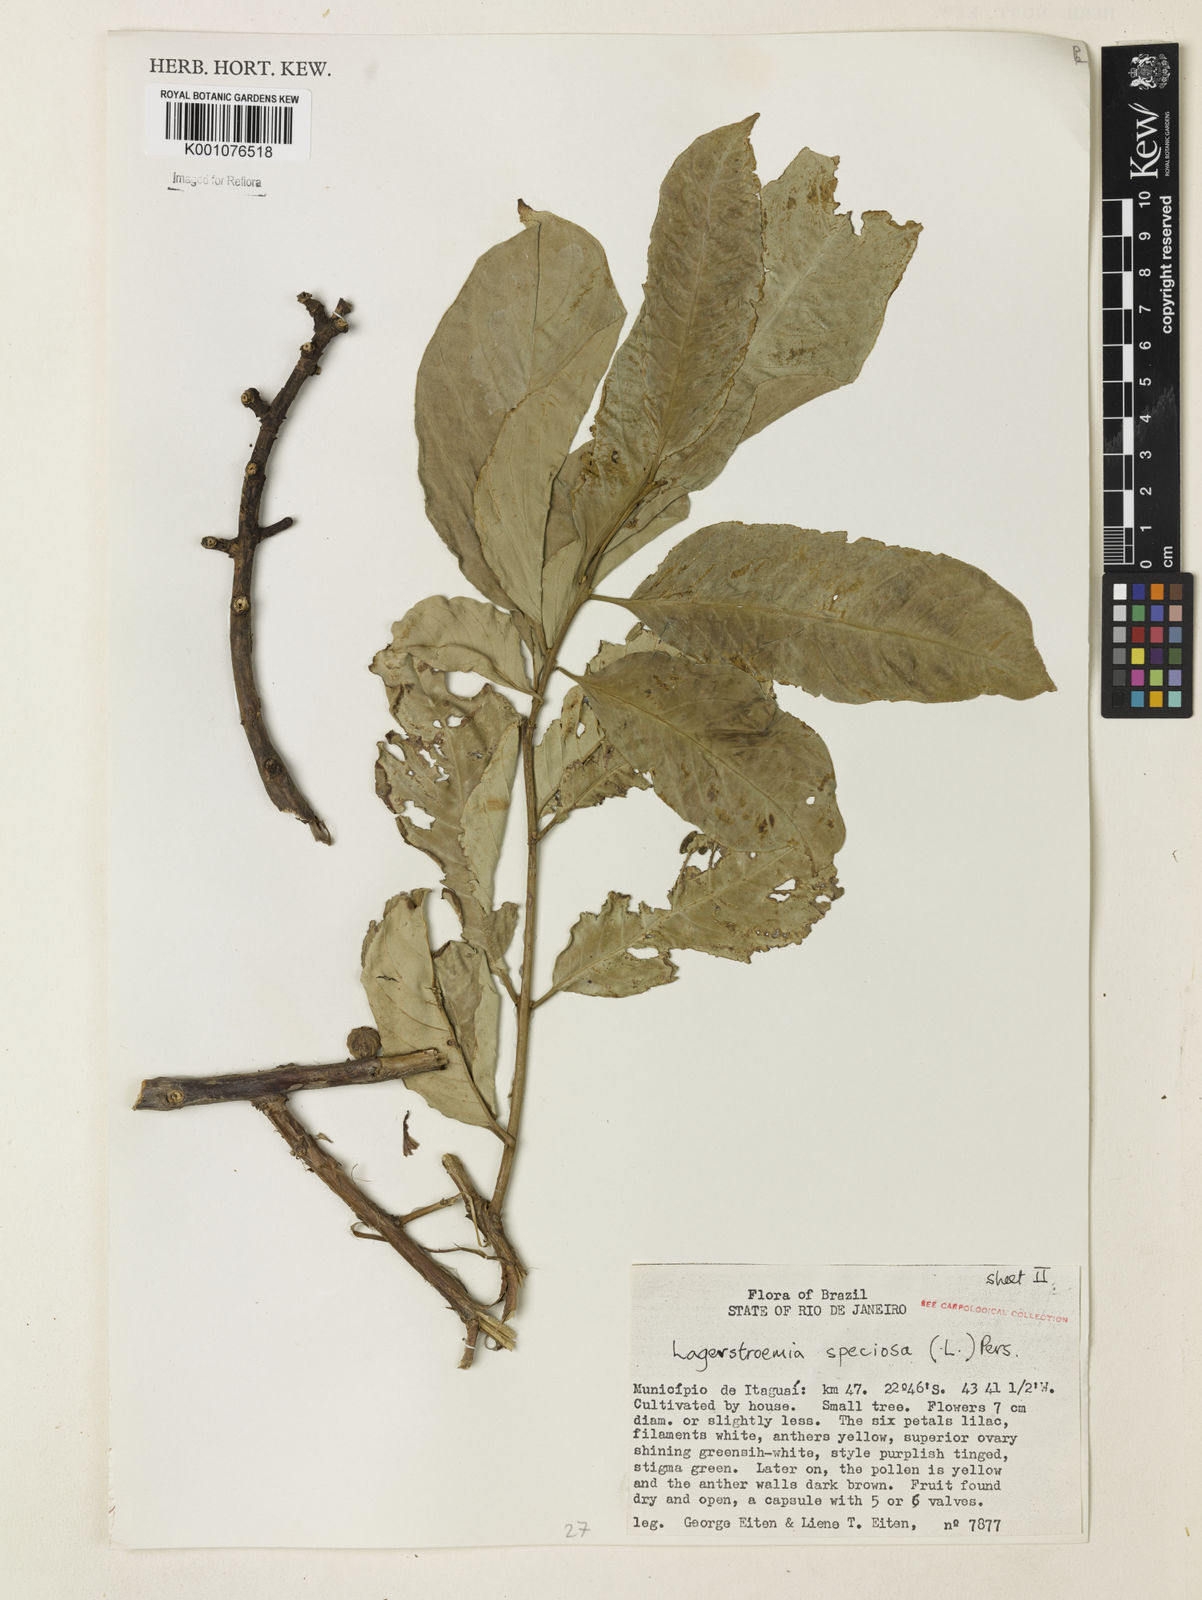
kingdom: Plantae
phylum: Tracheophyta
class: Magnoliopsida
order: Myrtales
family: Lythraceae
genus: Lagerstroemia
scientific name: Lagerstroemia speciosa
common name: Queen's crape-myrtle
